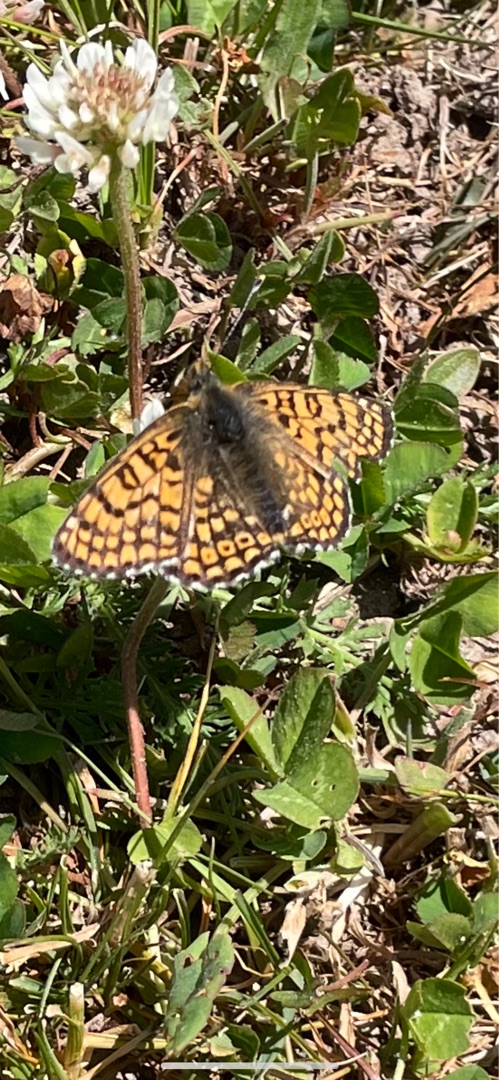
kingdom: Animalia
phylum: Arthropoda
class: Insecta
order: Lepidoptera
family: Nymphalidae
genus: Melitaea
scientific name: Melitaea cinxia
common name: Okkergul pletvinge
